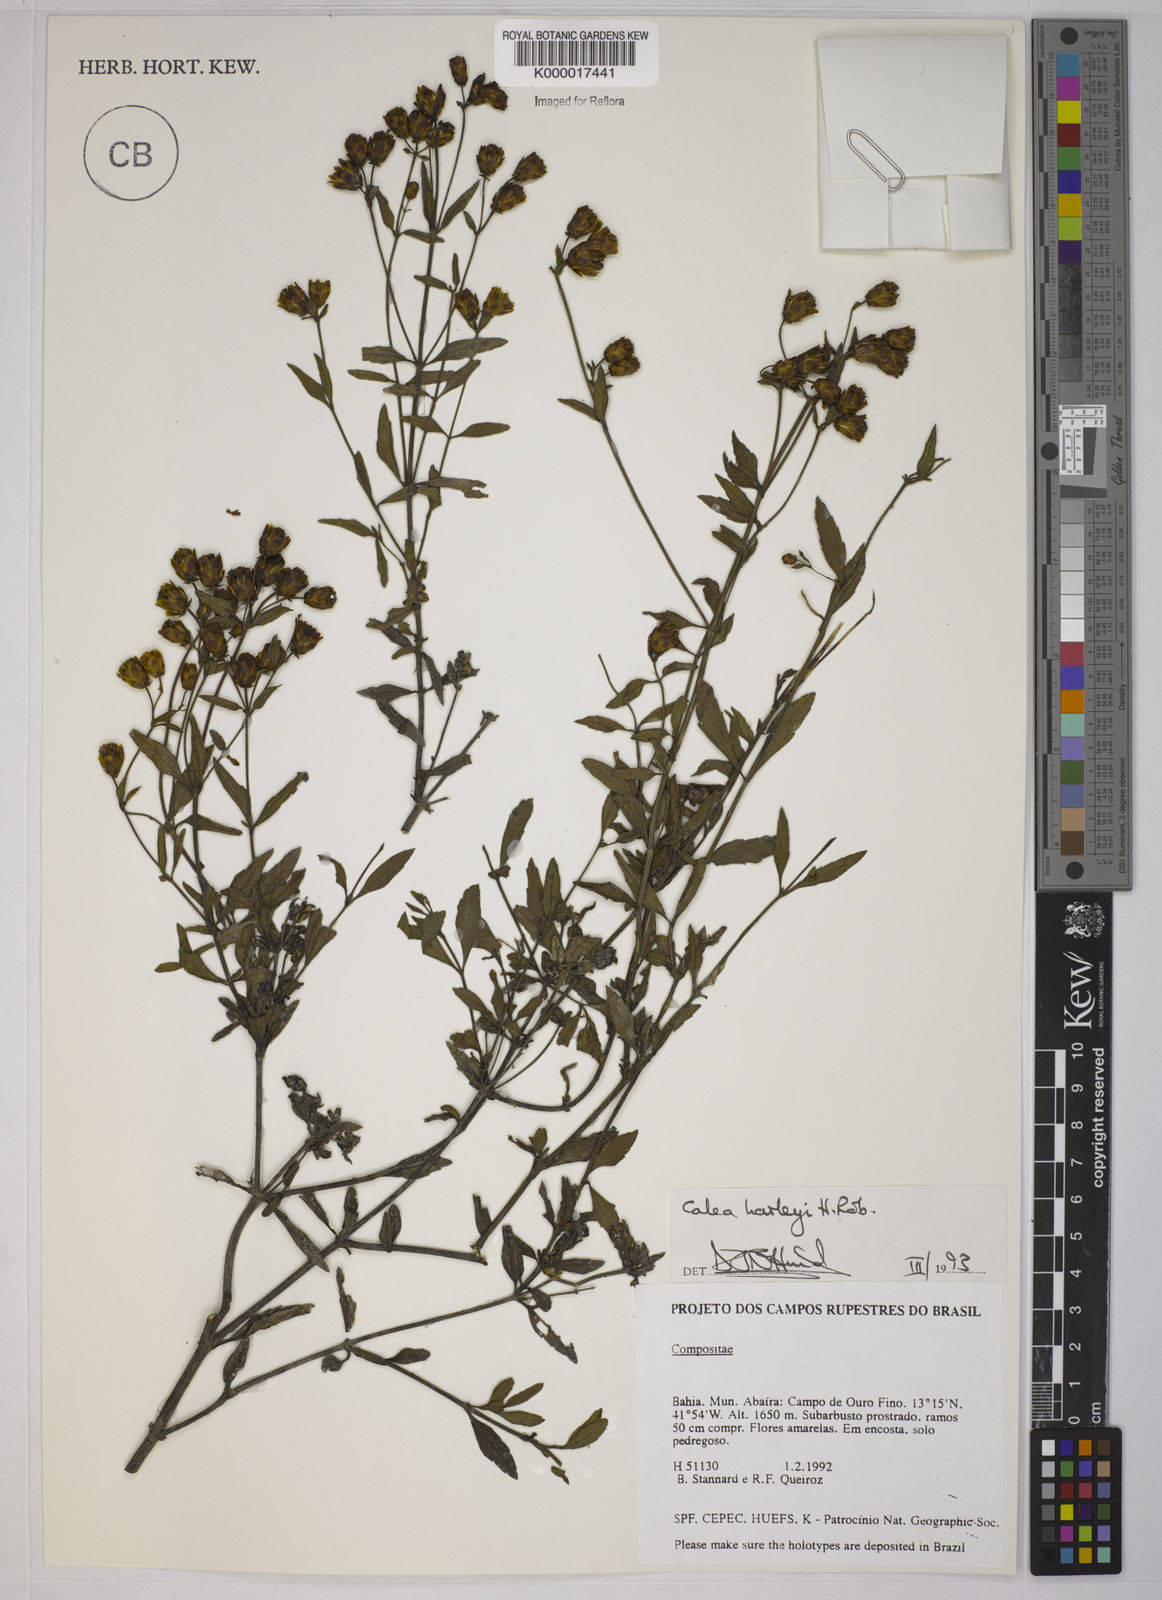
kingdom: Plantae
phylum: Tracheophyta
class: Magnoliopsida
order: Asterales
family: Asteraceae
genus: Calea
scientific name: Calea harleyi
